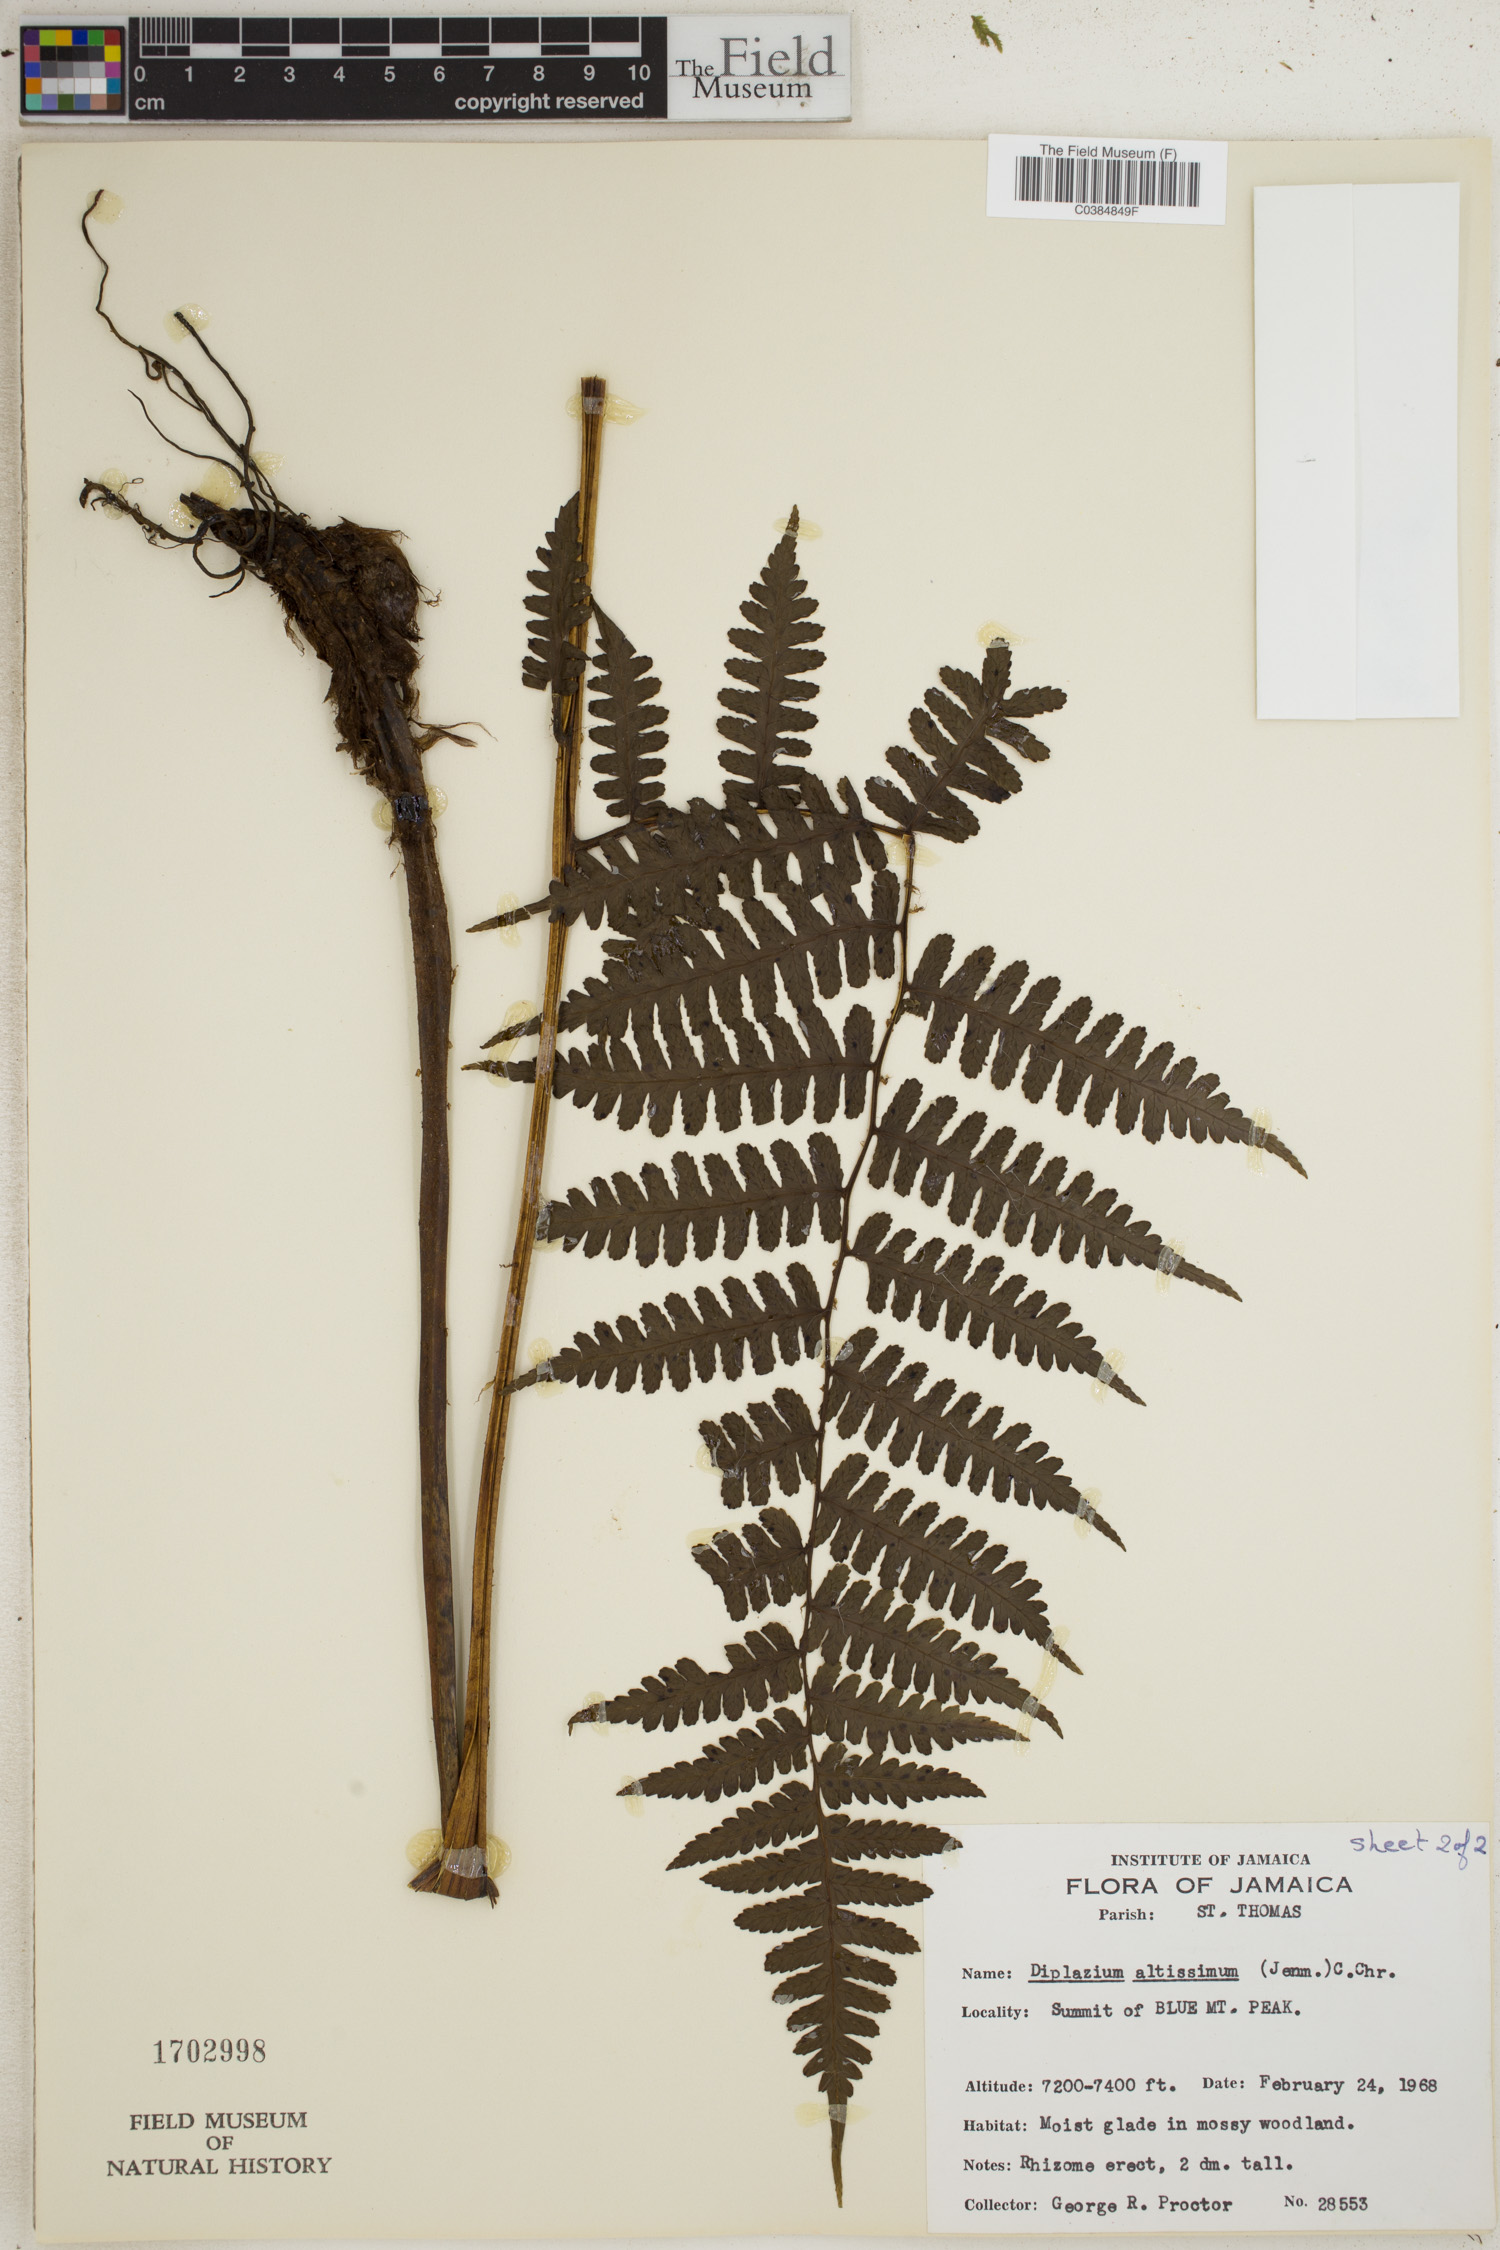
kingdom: Plantae
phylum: Tracheophyta
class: Polypodiopsida
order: Polypodiales
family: Athyriaceae
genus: Diplazium
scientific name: Diplazium altissimum
